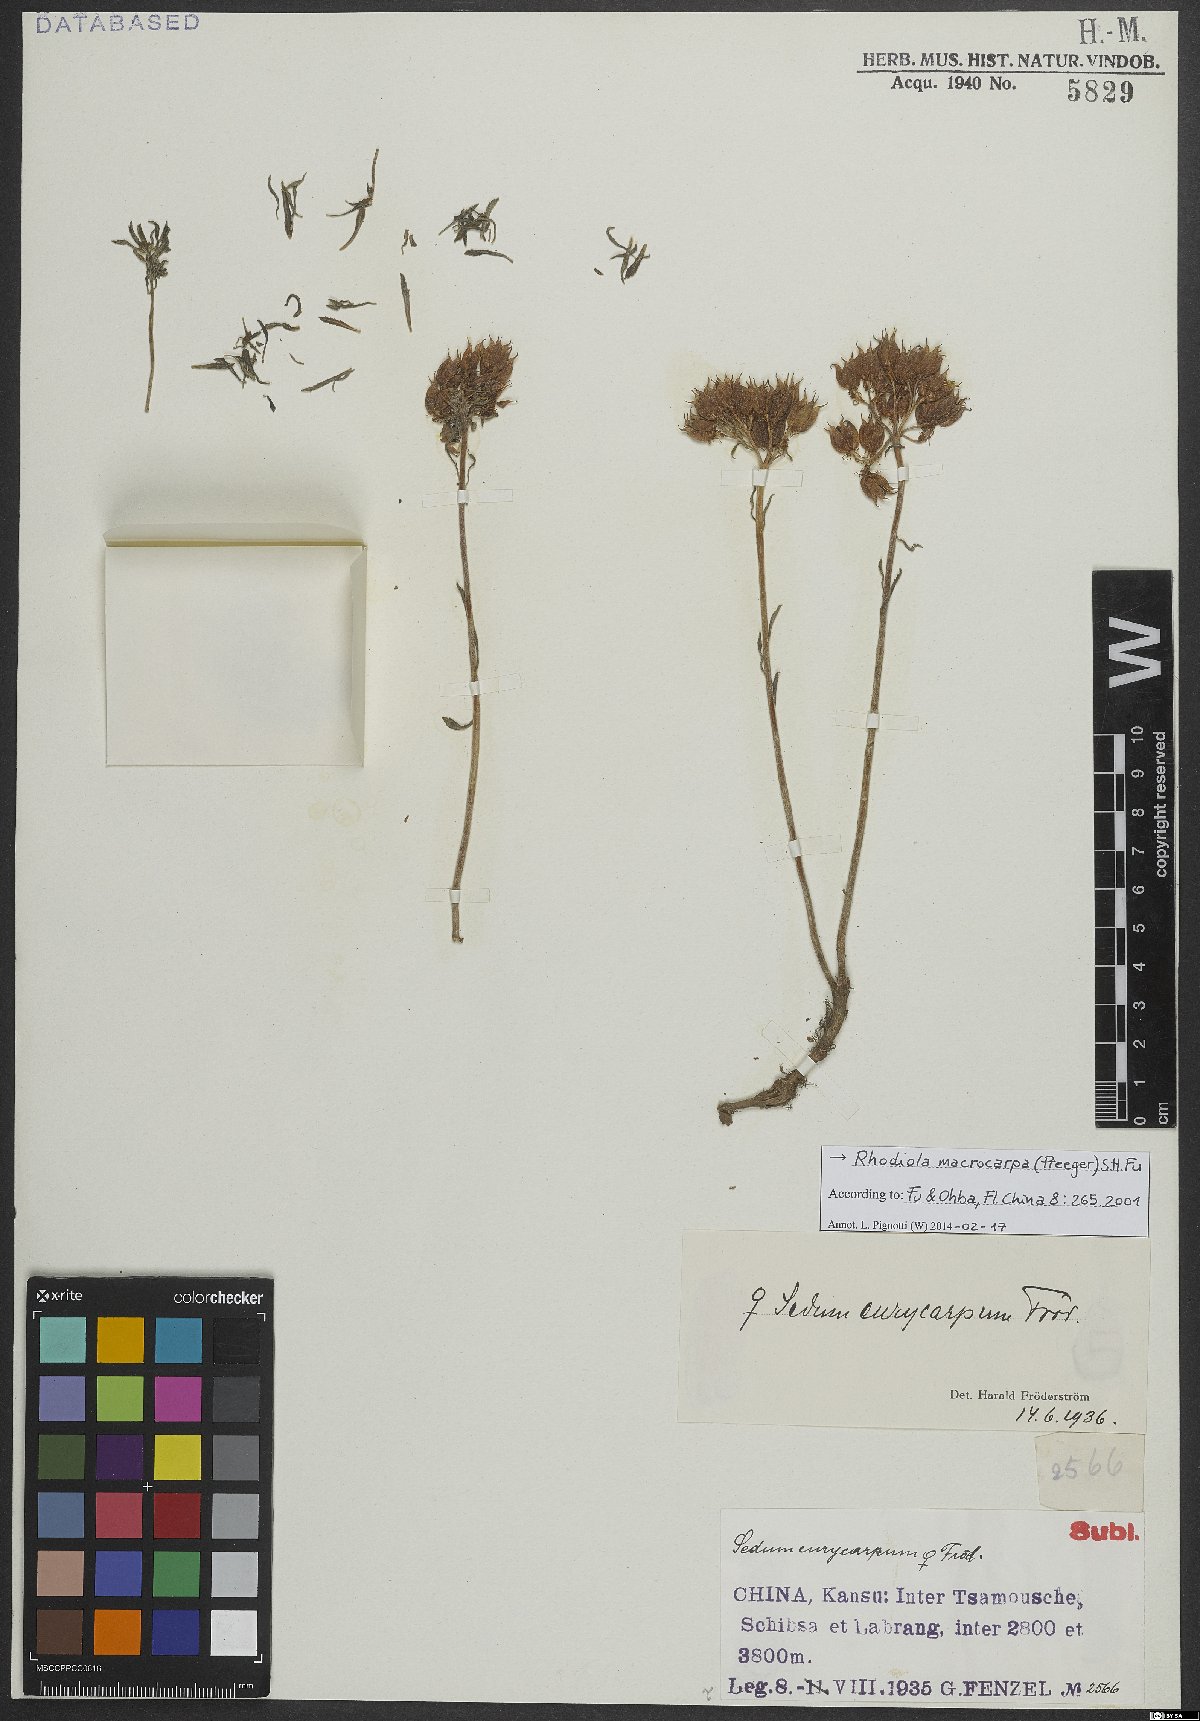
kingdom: Plantae
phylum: Tracheophyta
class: Magnoliopsida
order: Saxifragales
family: Crassulaceae
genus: Rhodiola
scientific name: Rhodiola macrocarpa
